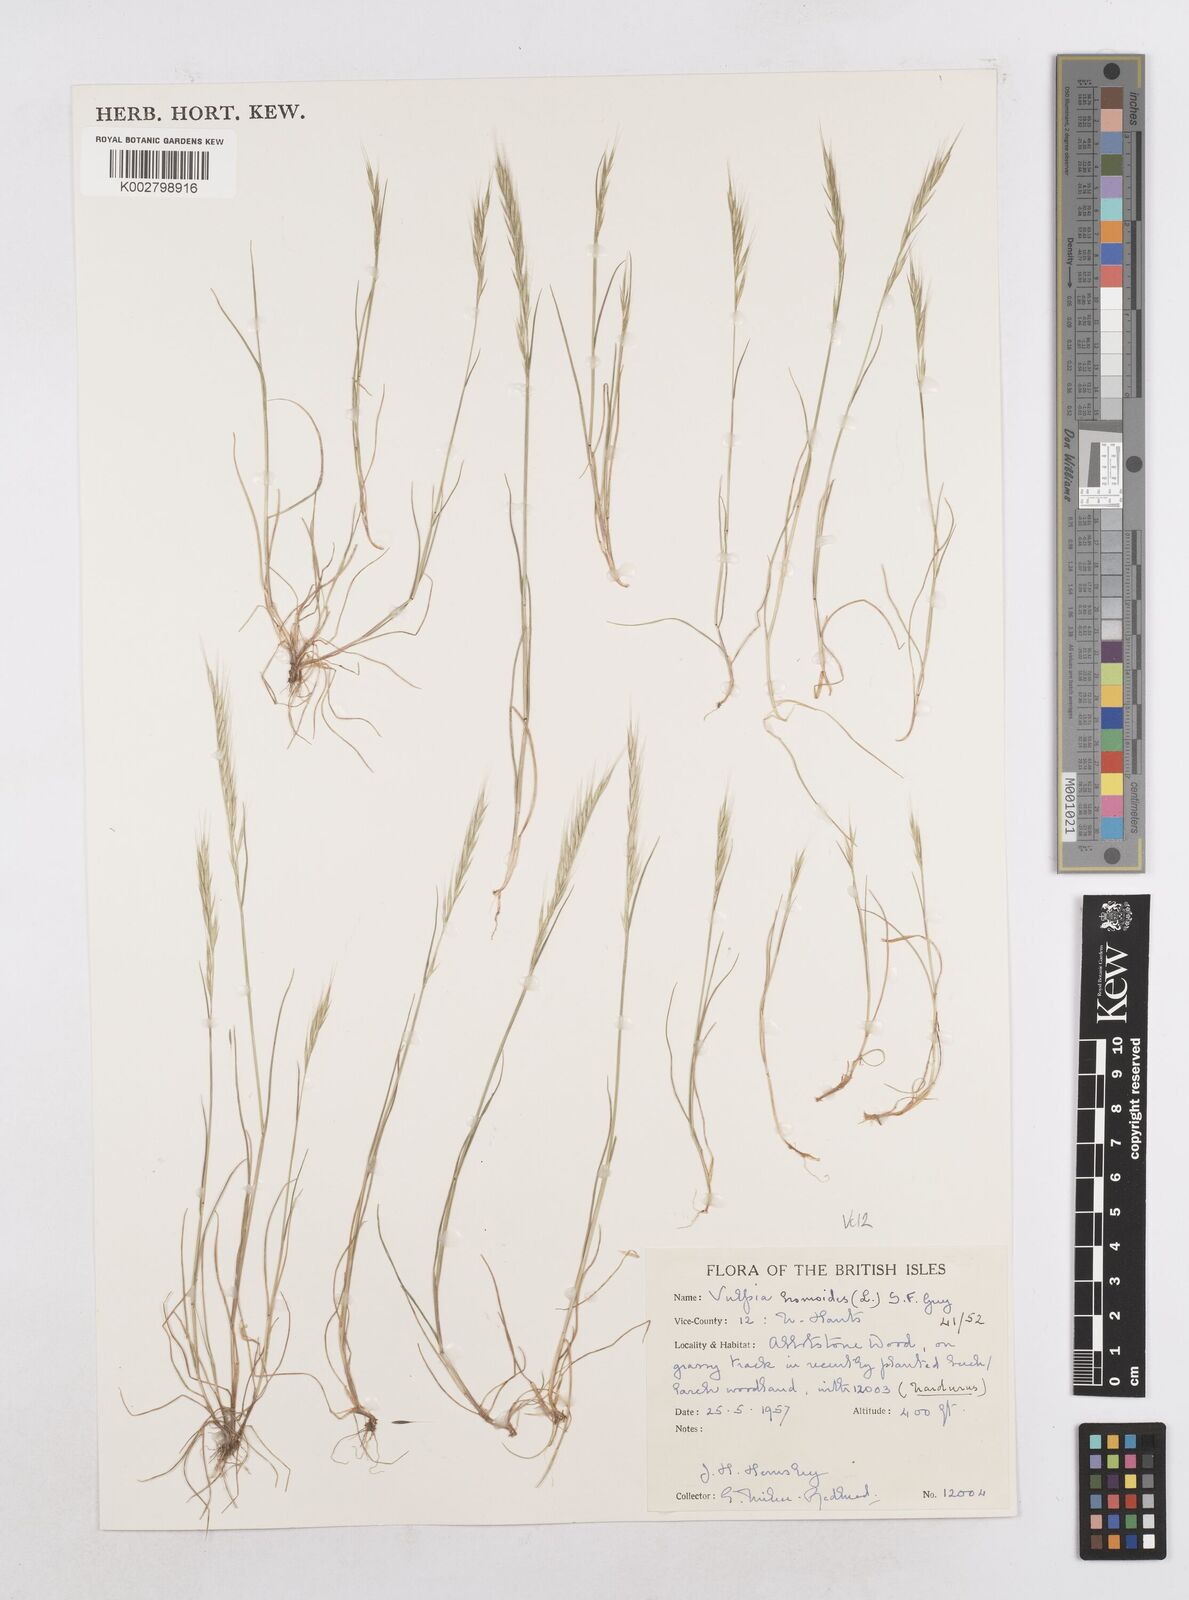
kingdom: Plantae
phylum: Tracheophyta
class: Liliopsida
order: Poales
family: Poaceae
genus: Festuca
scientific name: Festuca bromoides
